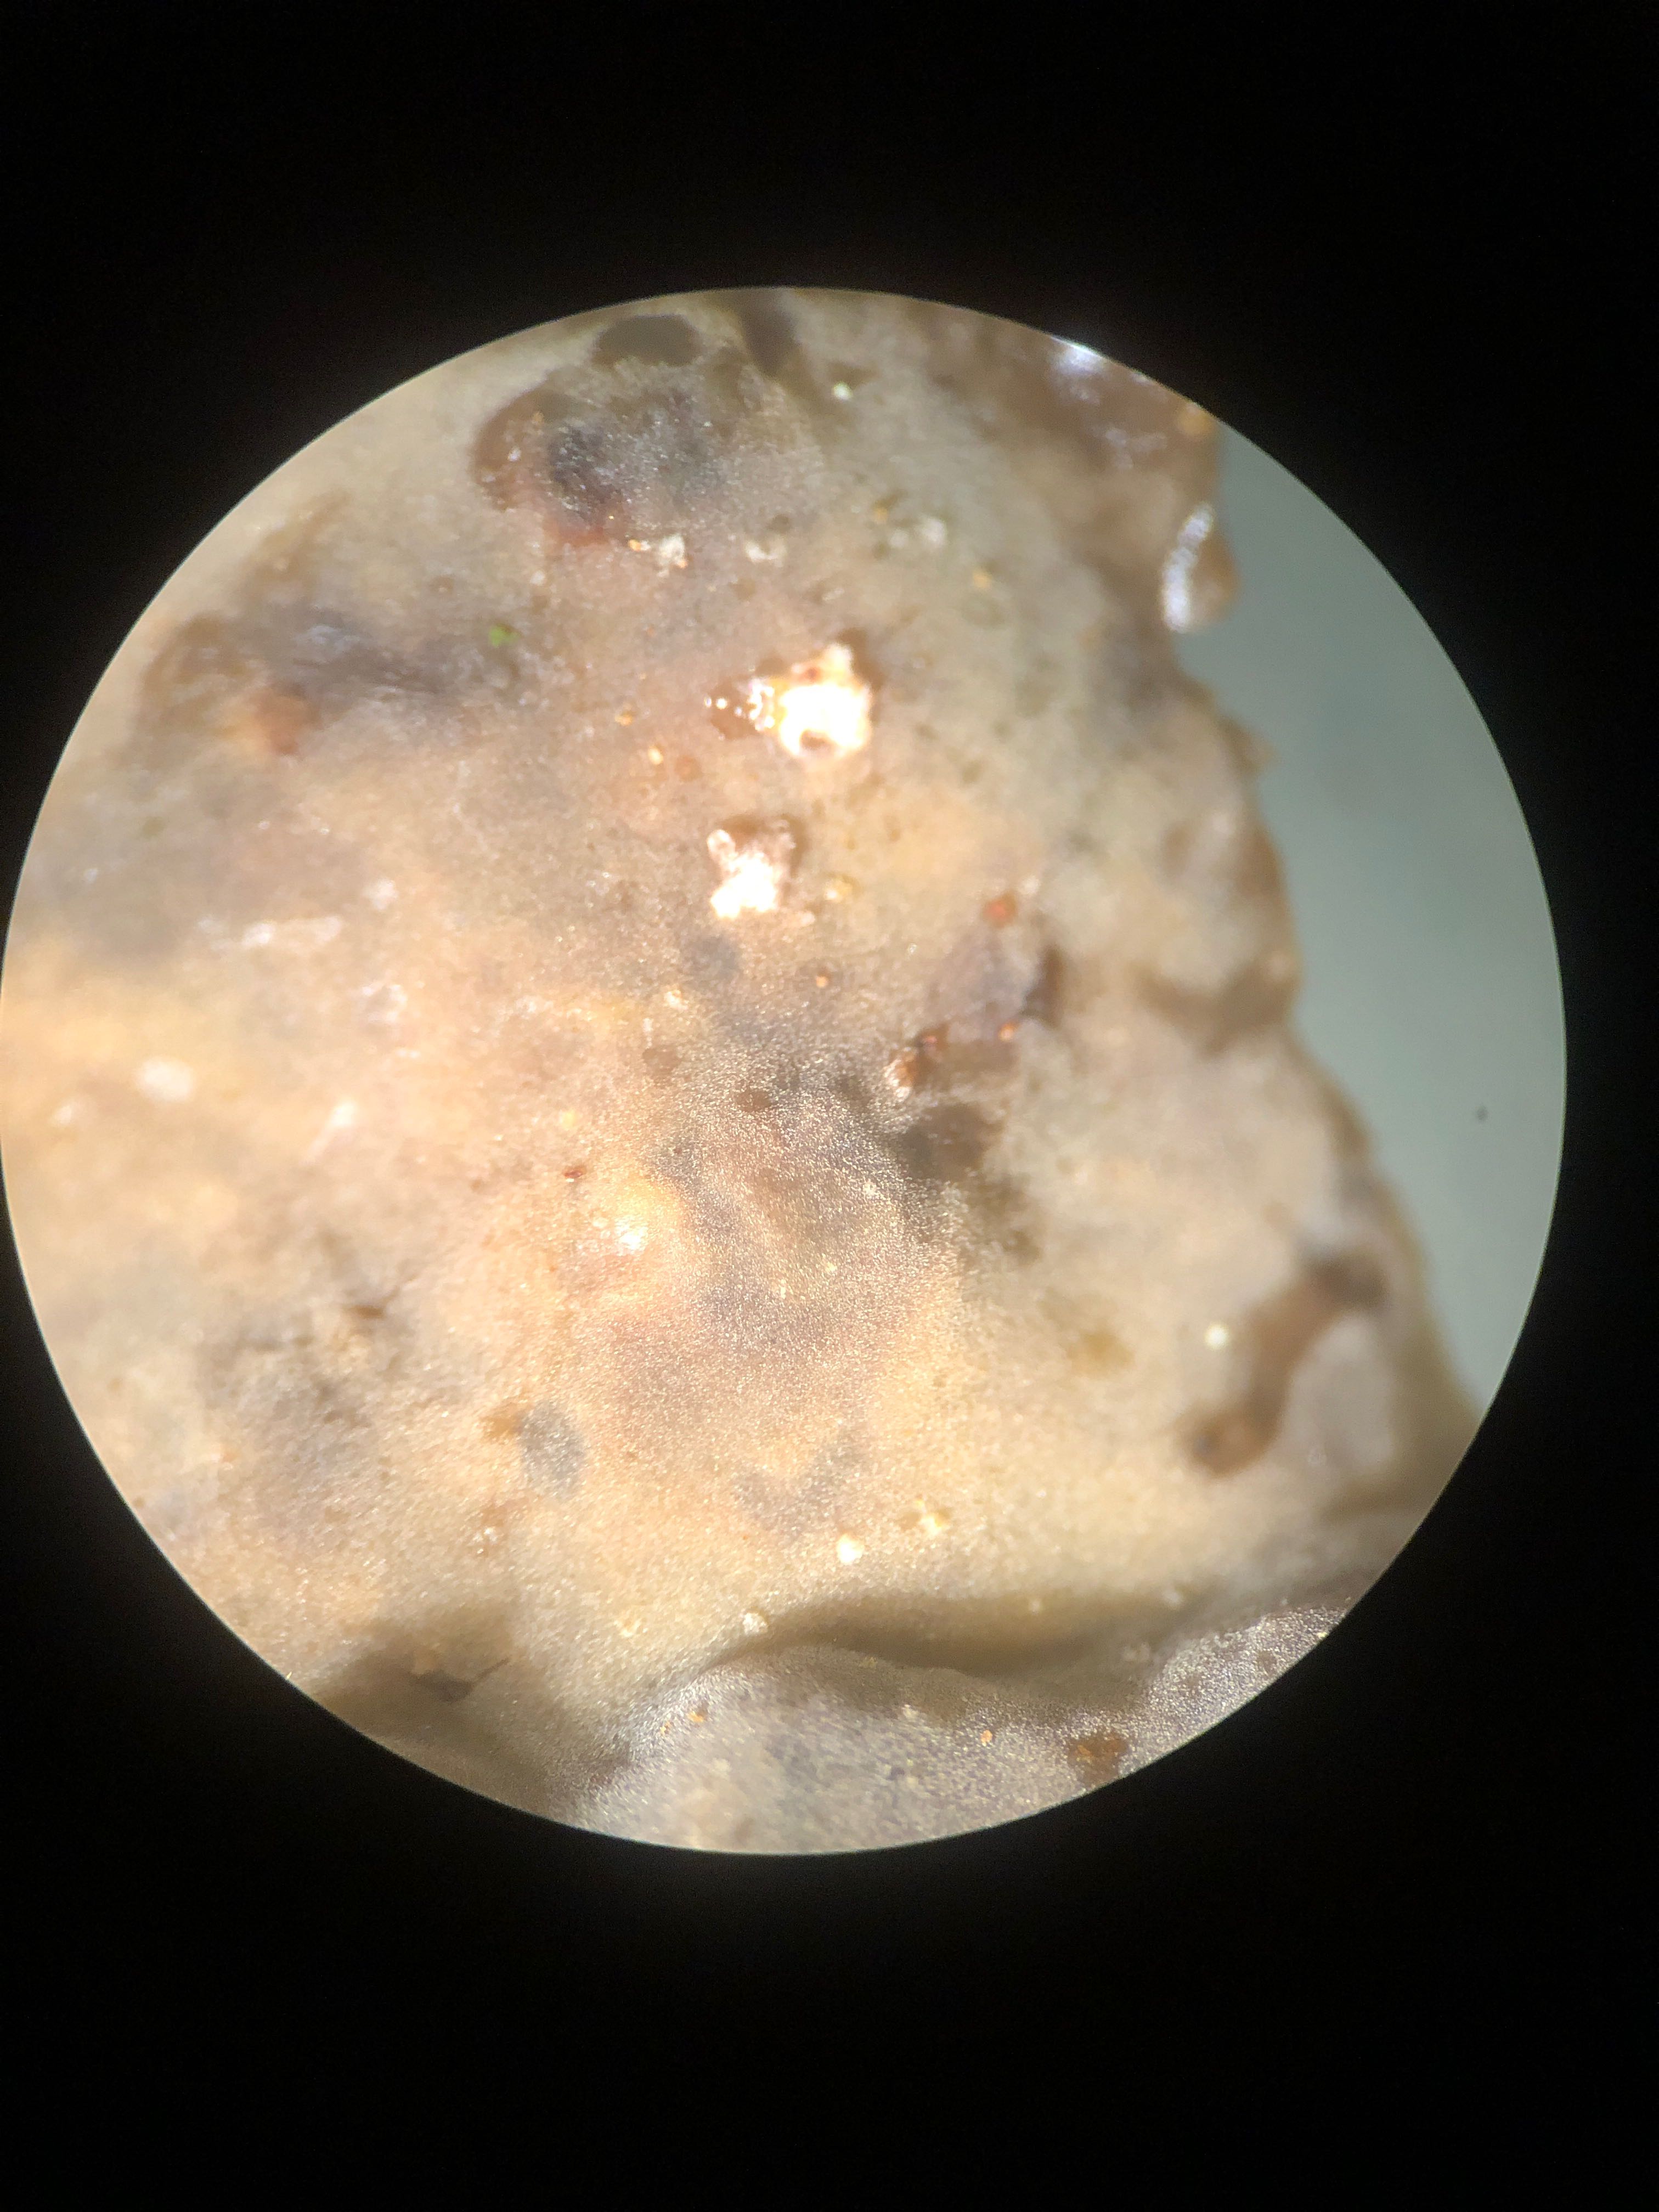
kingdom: Fungi
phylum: Basidiomycota
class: Agaricomycetes
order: Russulales
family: Stereaceae
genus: Stereum
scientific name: Stereum rugosum
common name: rynket lædersvamp
